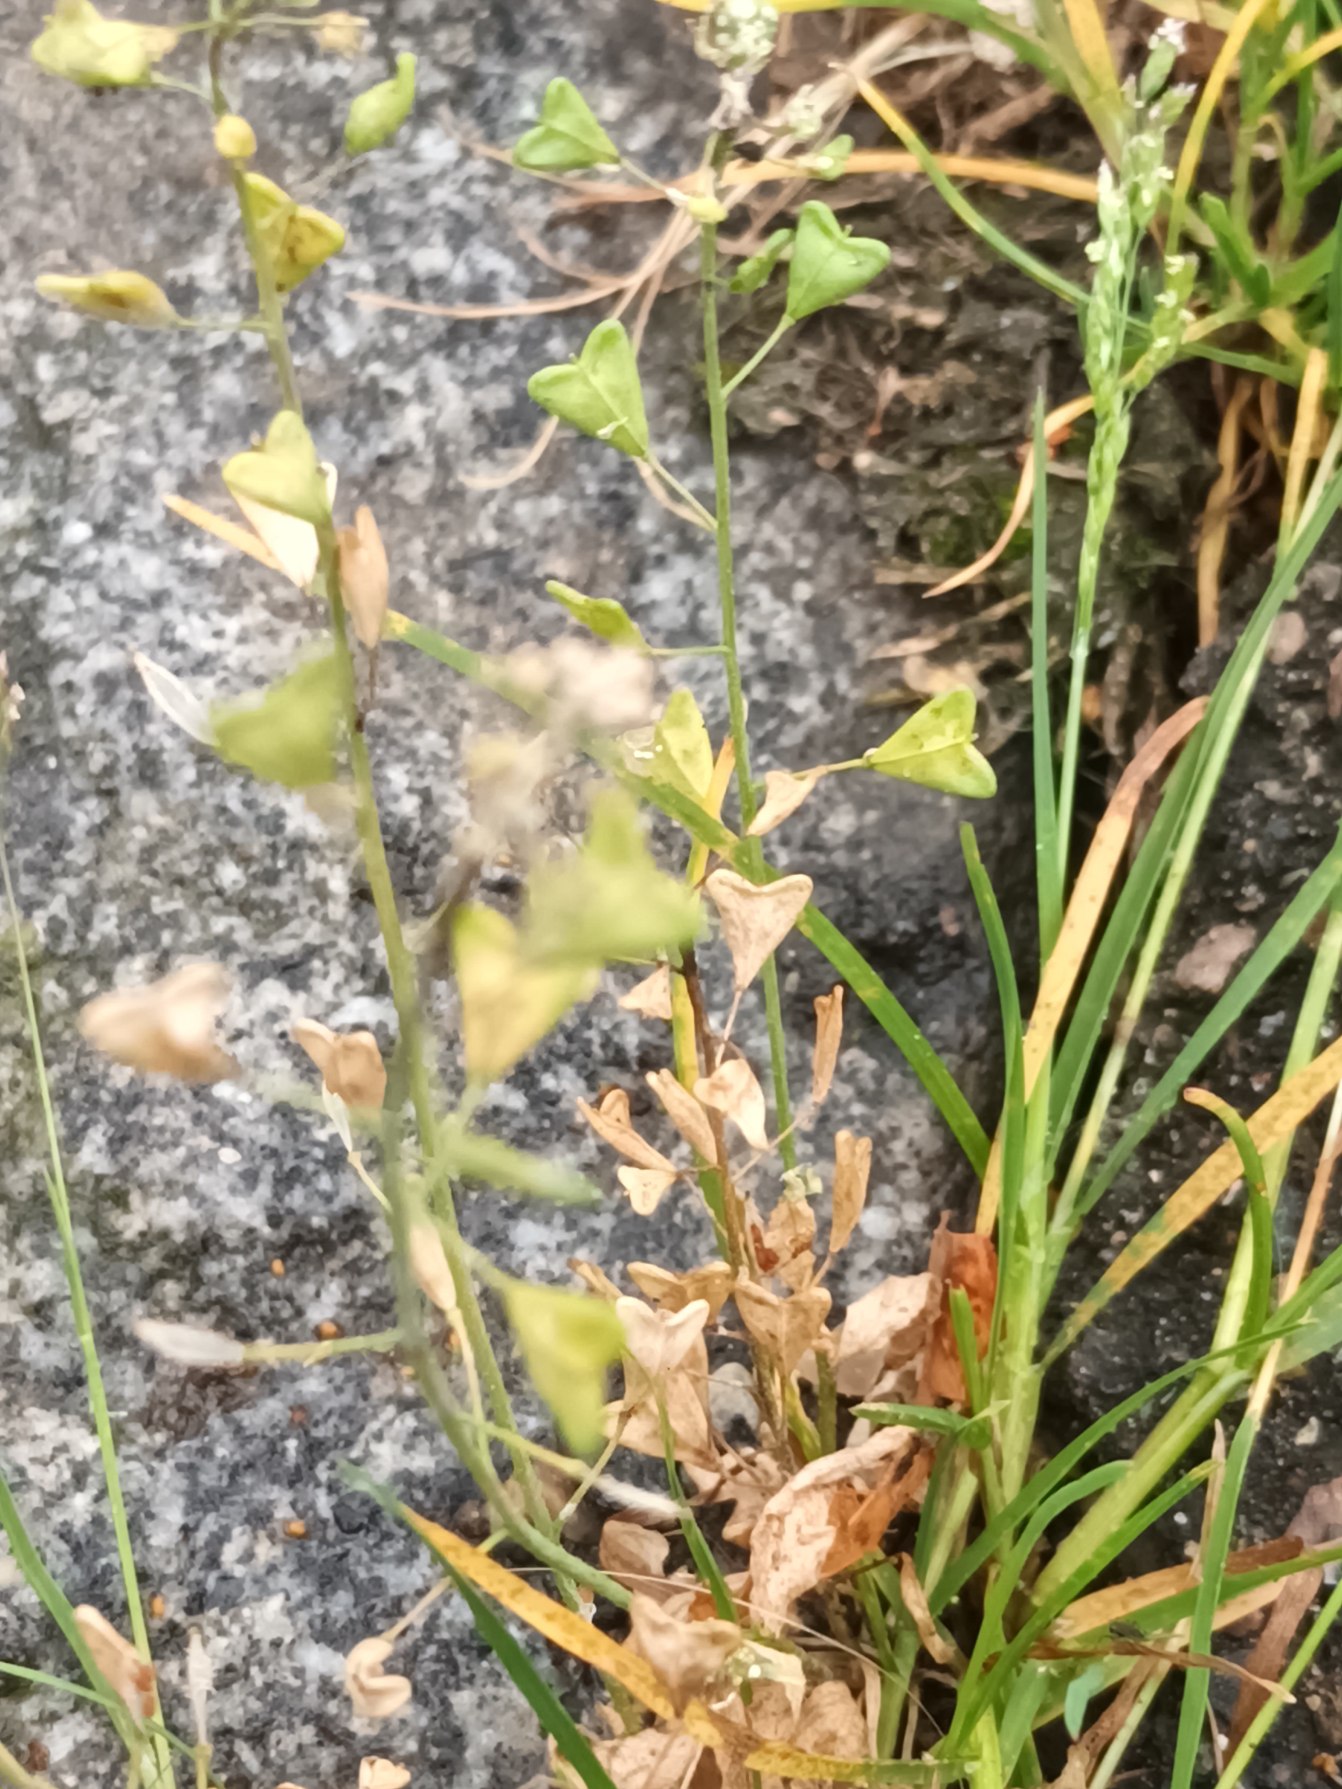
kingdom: Plantae
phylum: Tracheophyta
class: Magnoliopsida
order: Brassicales
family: Brassicaceae
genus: Capsella
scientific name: Capsella bursa-pastoris
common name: Hyrdetaske
